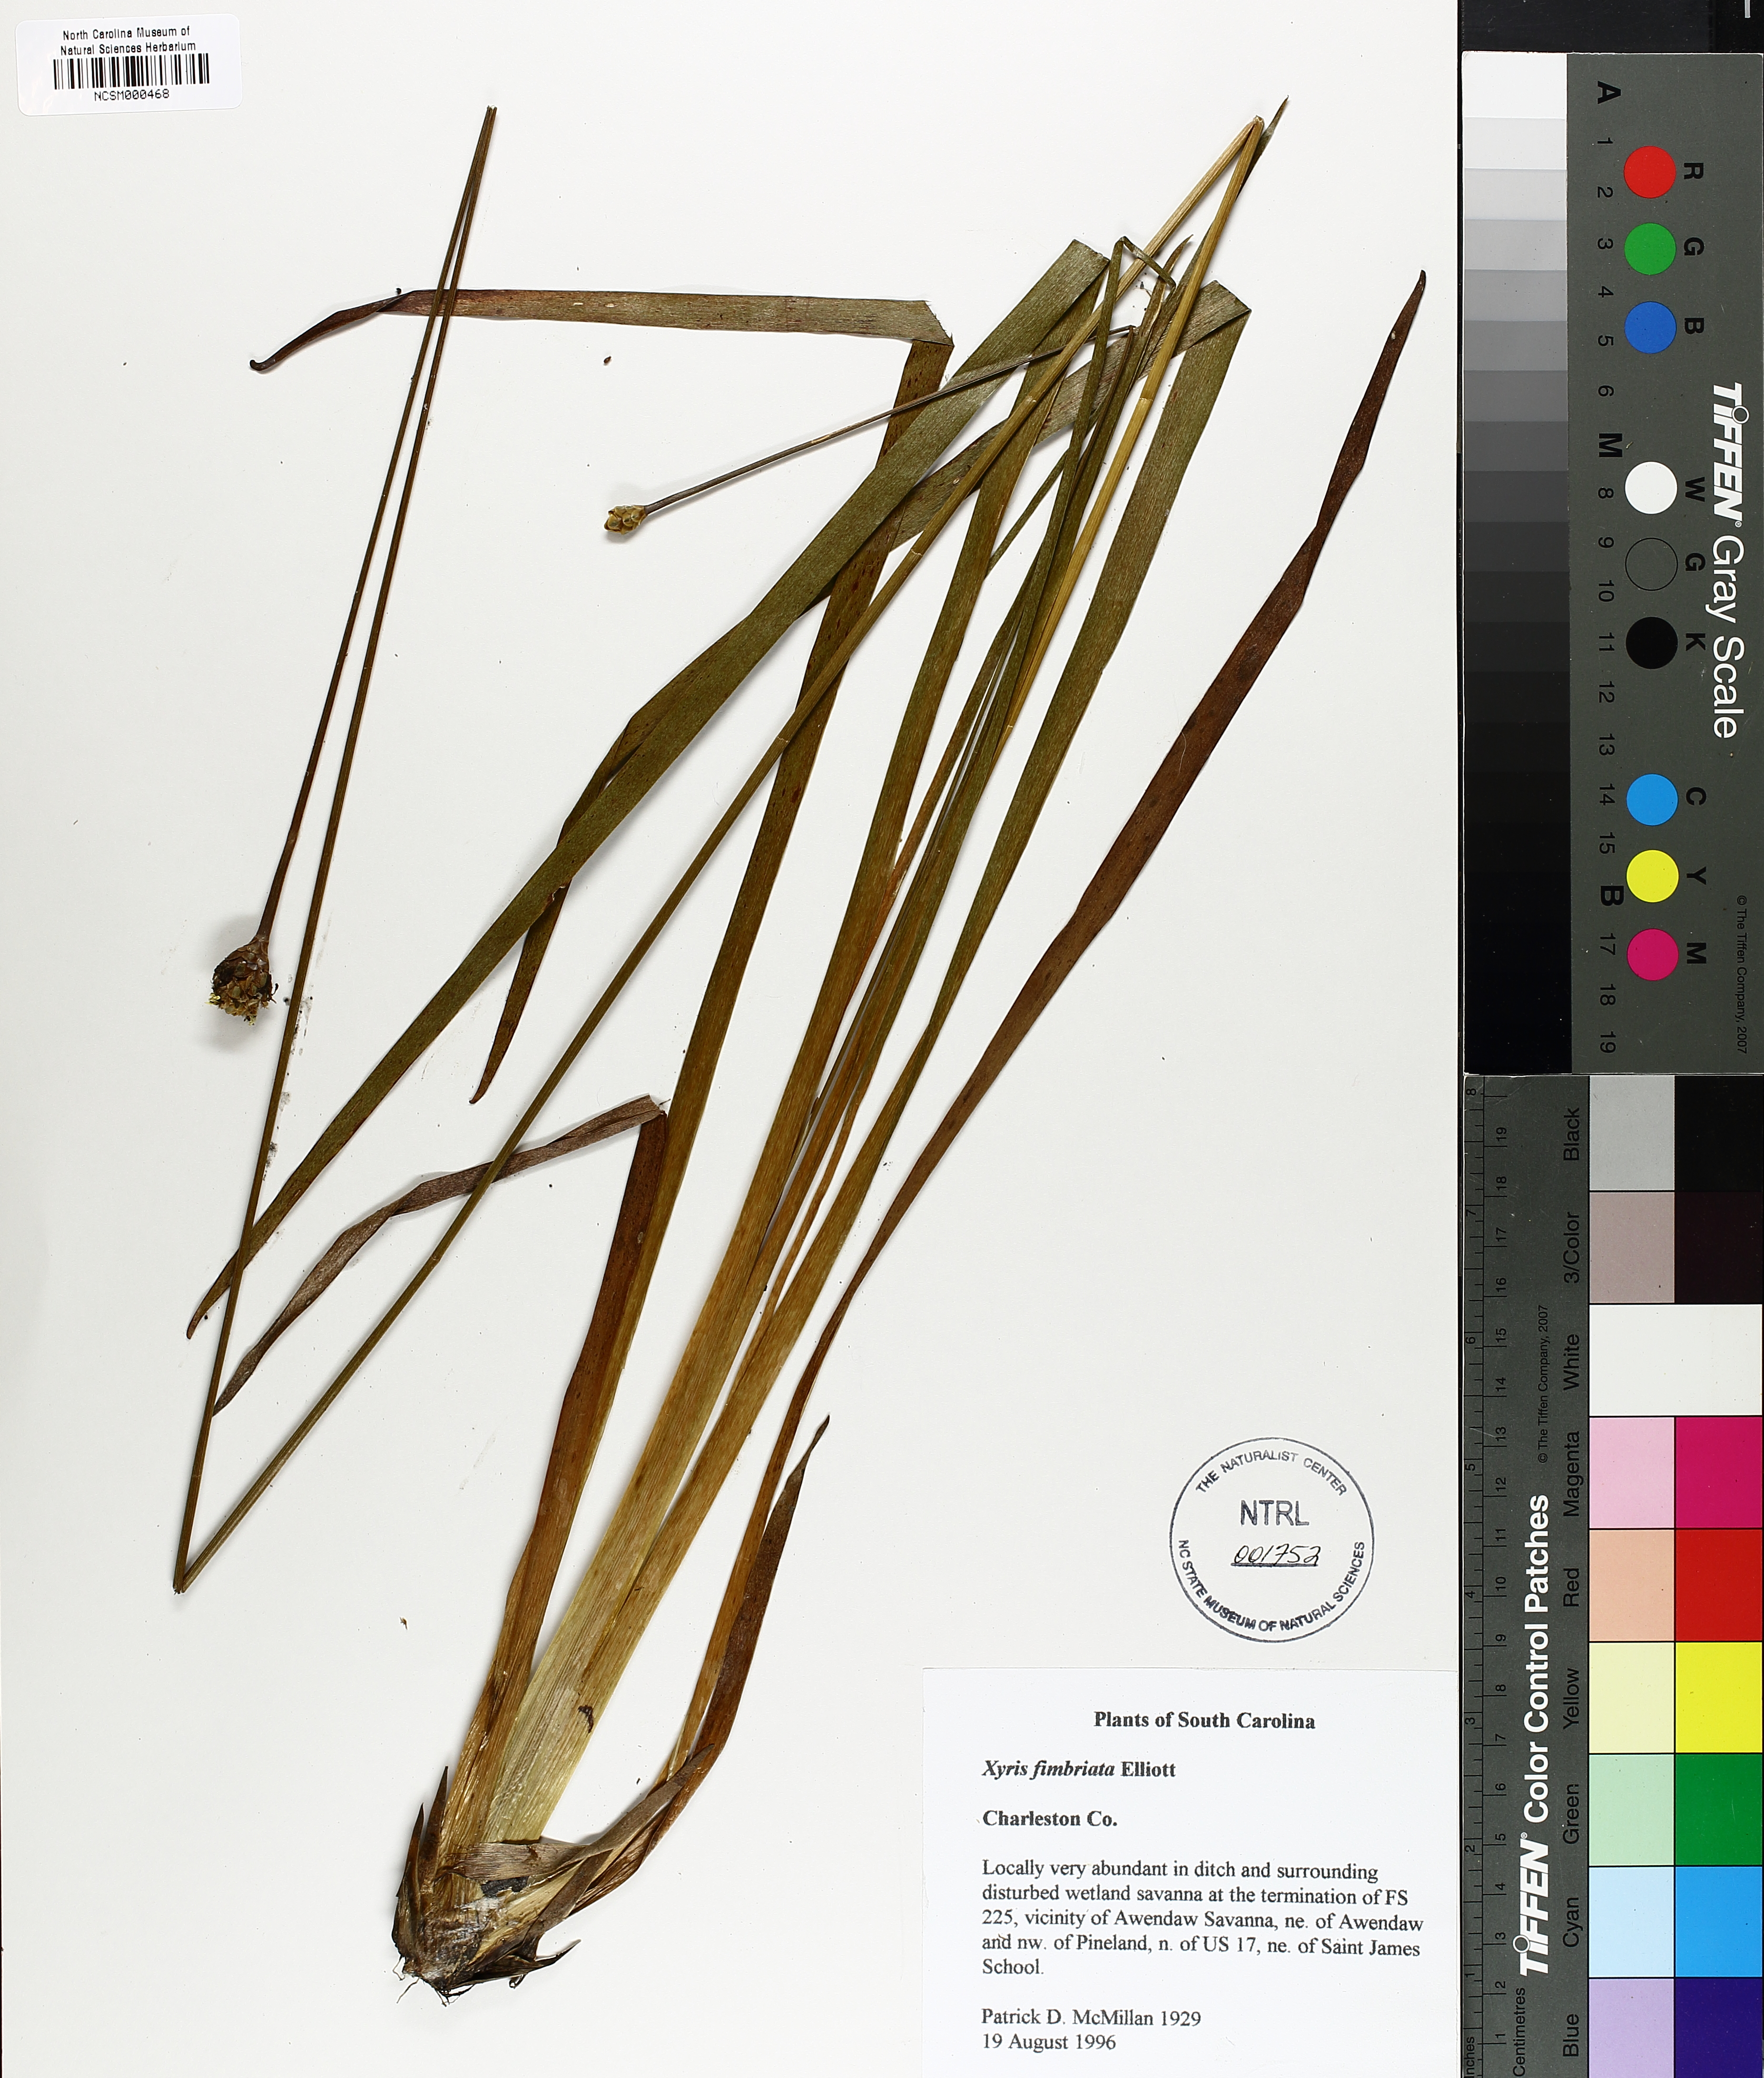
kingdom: Plantae
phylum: Tracheophyta
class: Liliopsida
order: Poales
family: Xyridaceae
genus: Xyris
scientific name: Xyris fimbriata
